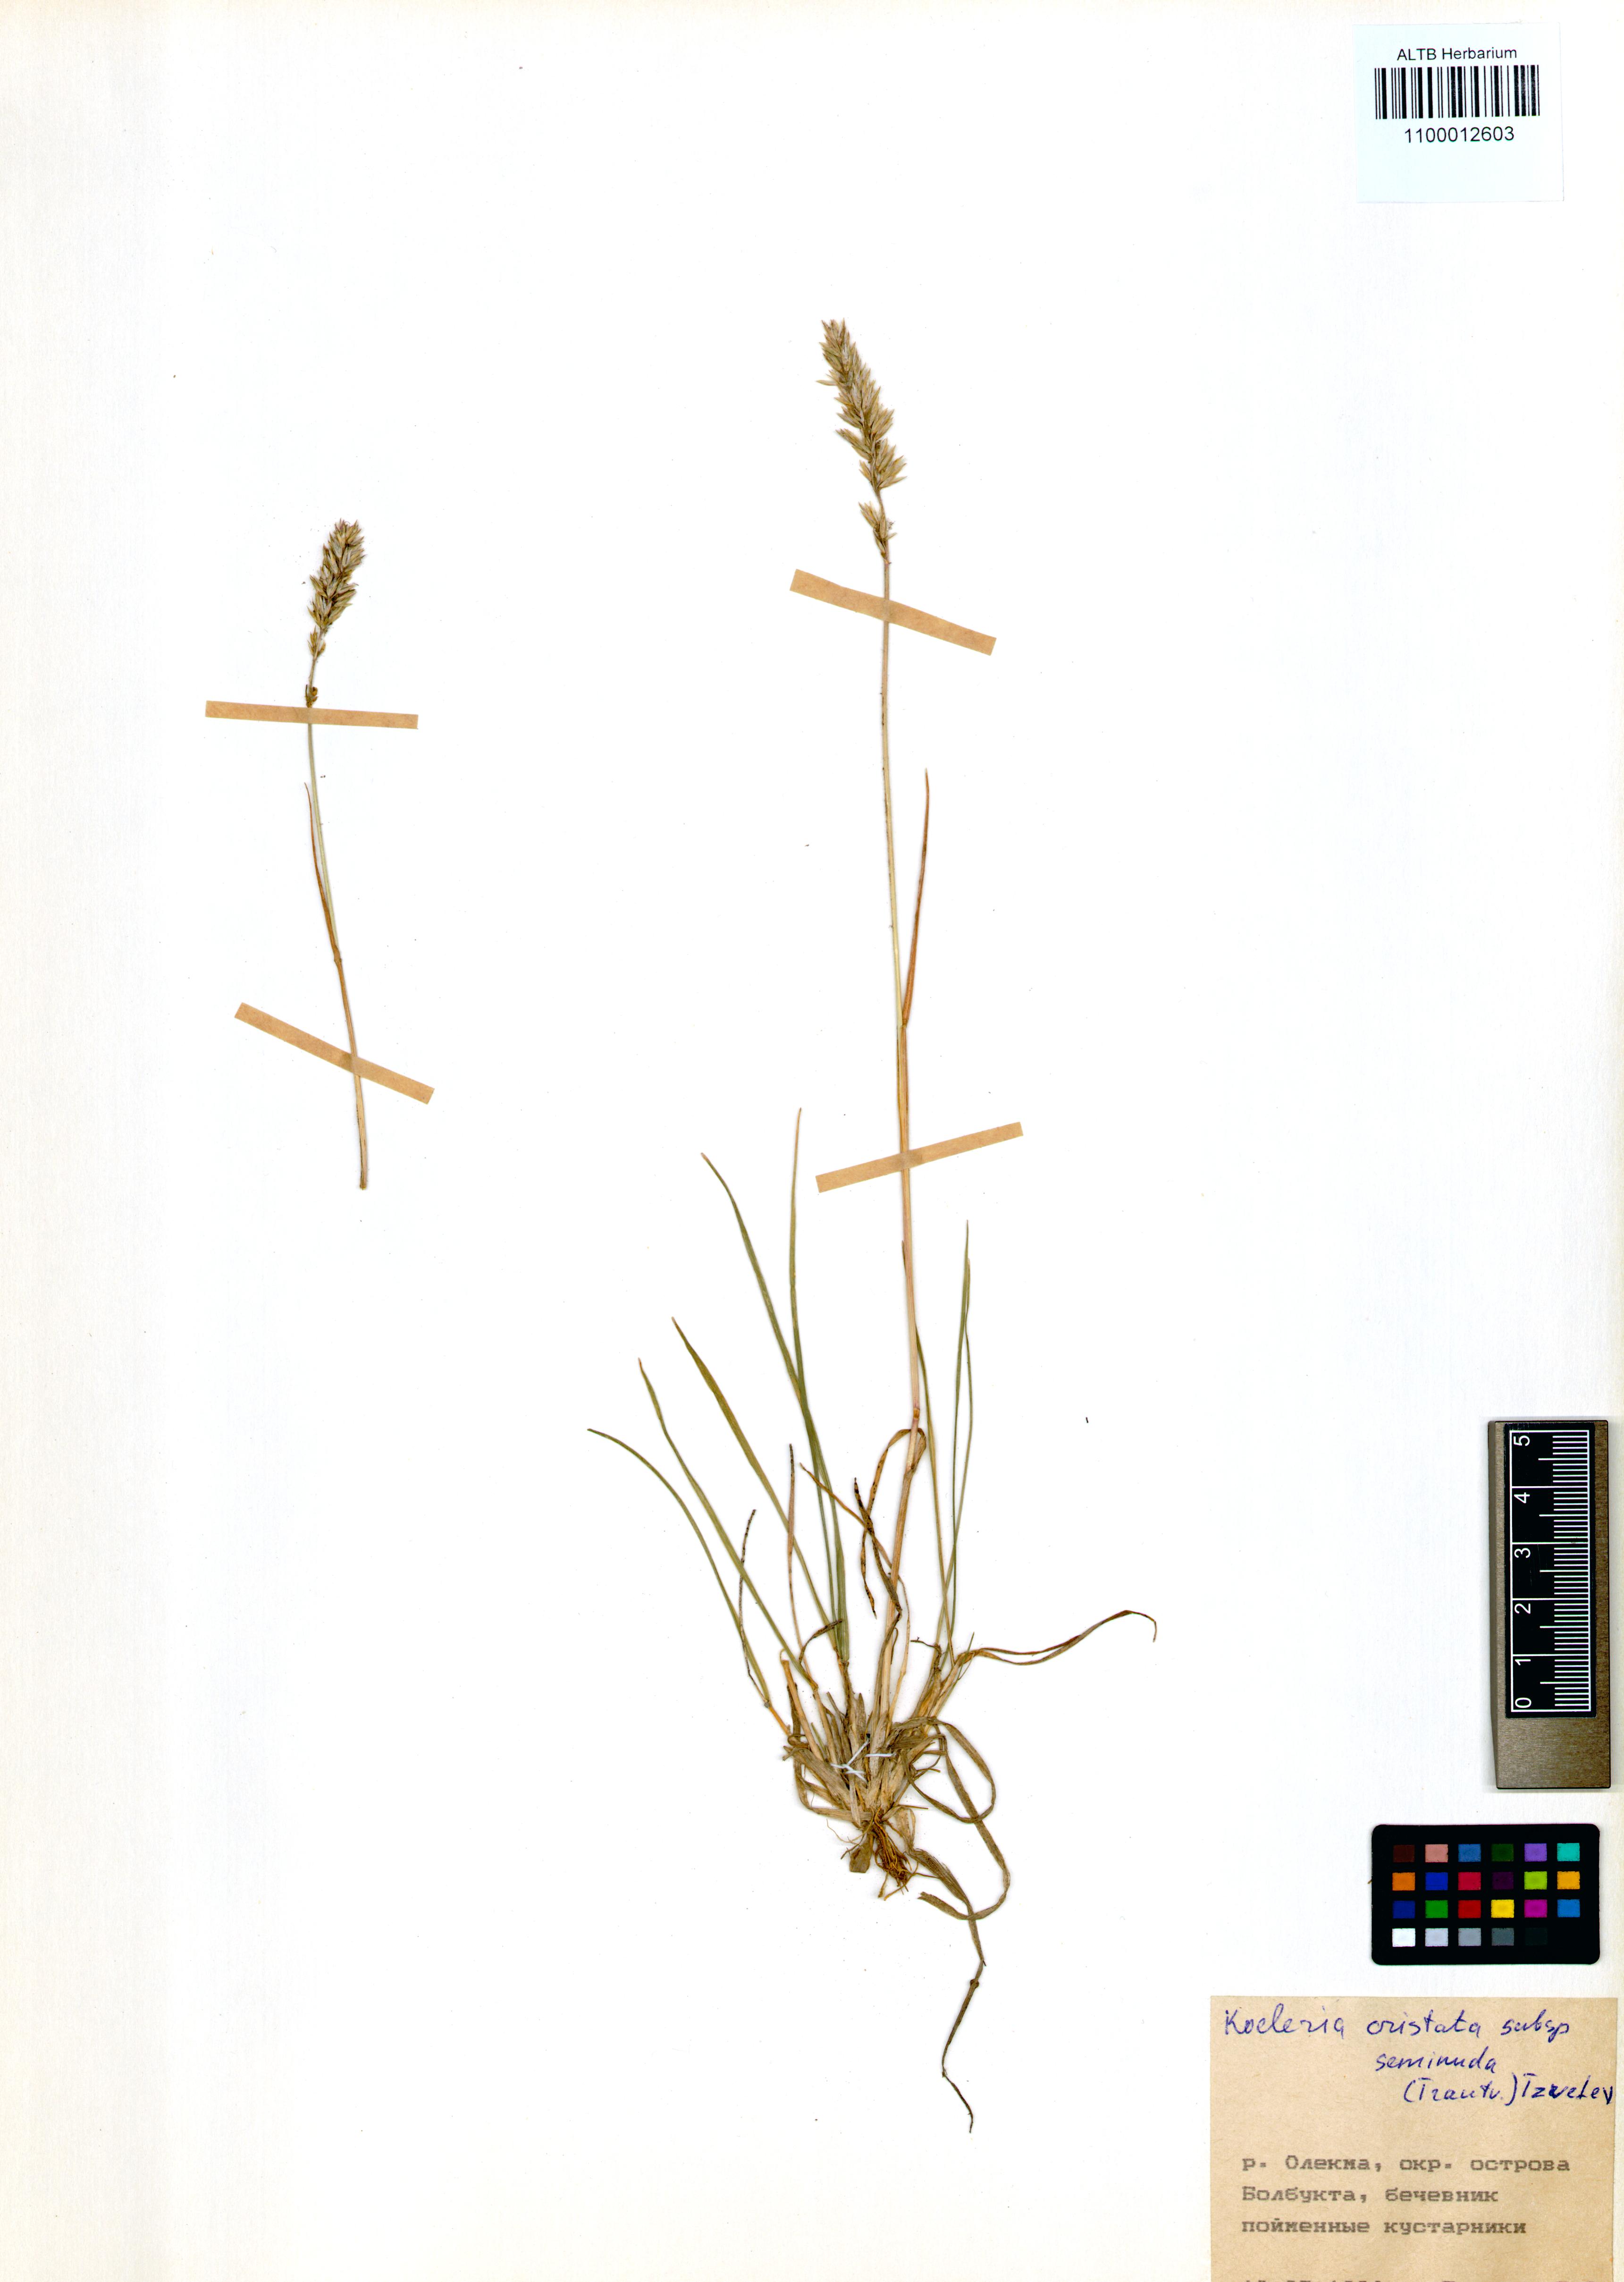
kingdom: Plantae
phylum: Tracheophyta
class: Liliopsida
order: Poales
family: Poaceae
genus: Koeleria
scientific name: Koeleria pyramidata
